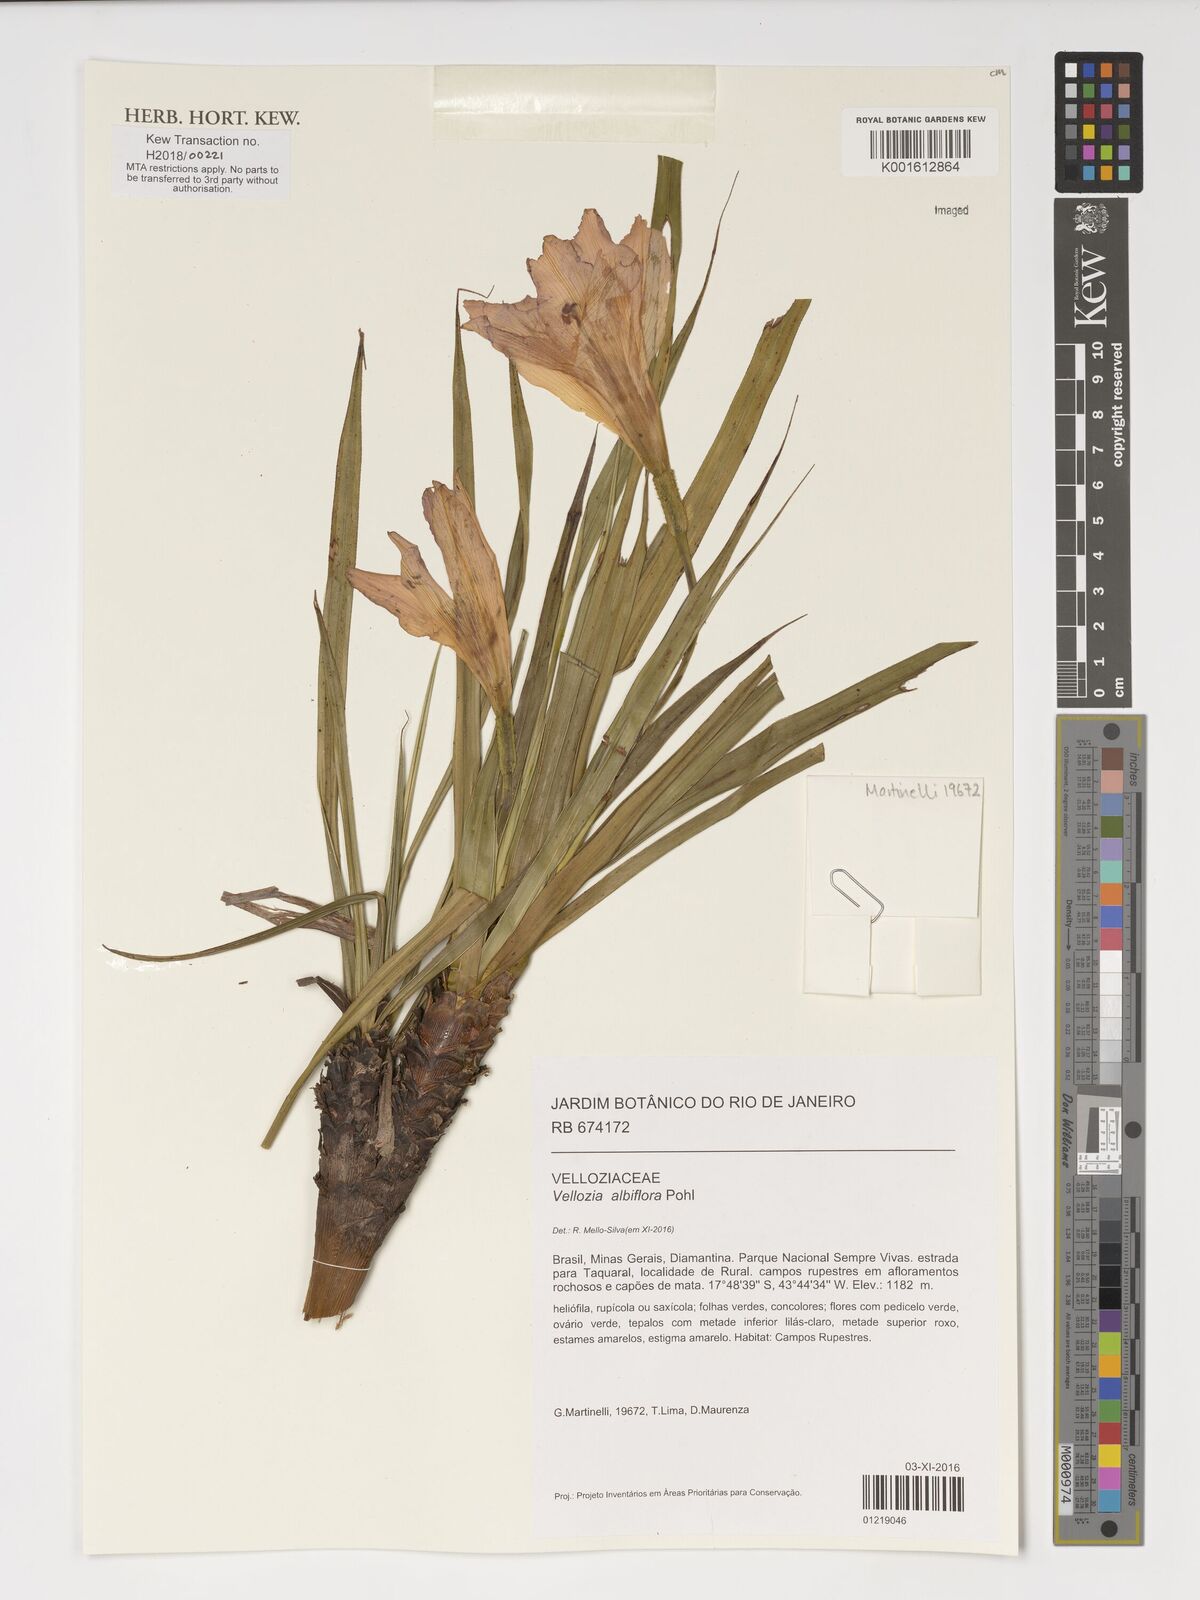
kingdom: Plantae
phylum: Tracheophyta
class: Liliopsida
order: Pandanales
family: Velloziaceae
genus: Vellozia
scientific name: Vellozia albiflora
